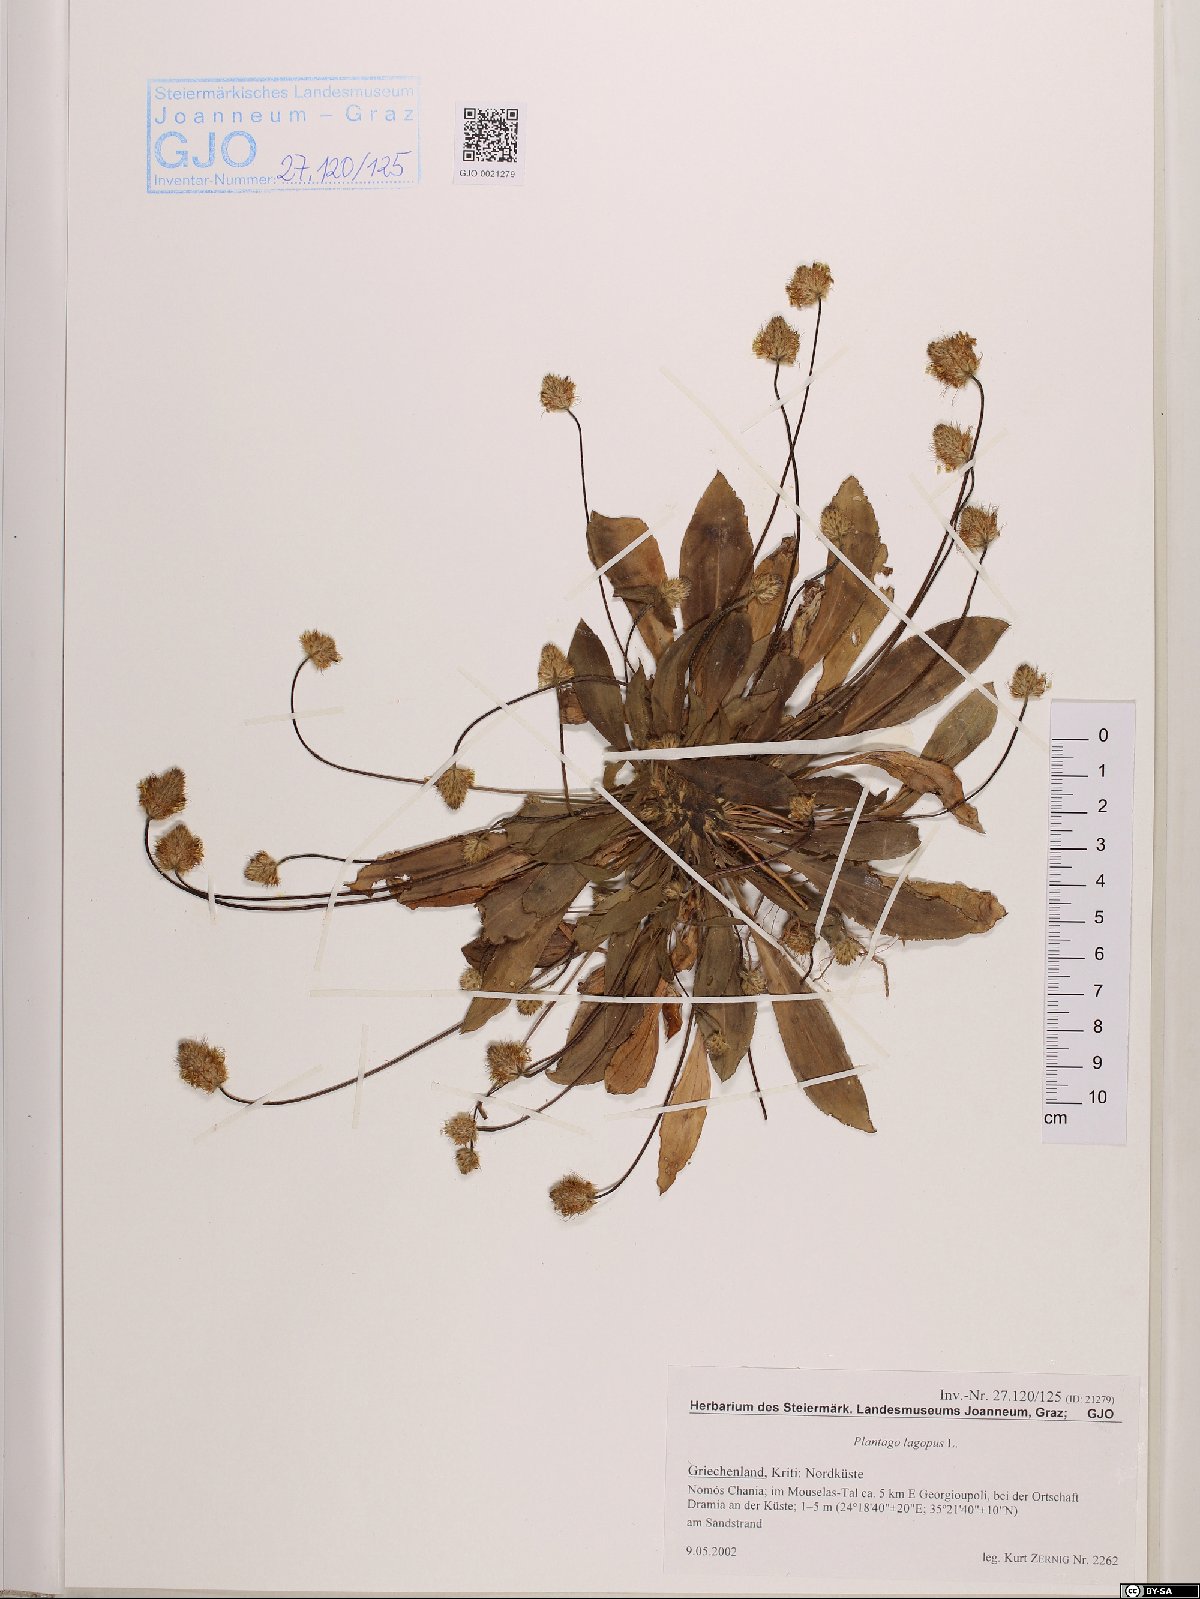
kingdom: Plantae
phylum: Tracheophyta
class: Magnoliopsida
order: Lamiales
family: Plantaginaceae
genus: Plantago
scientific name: Plantago lagopus
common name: Hare-foot plantain
